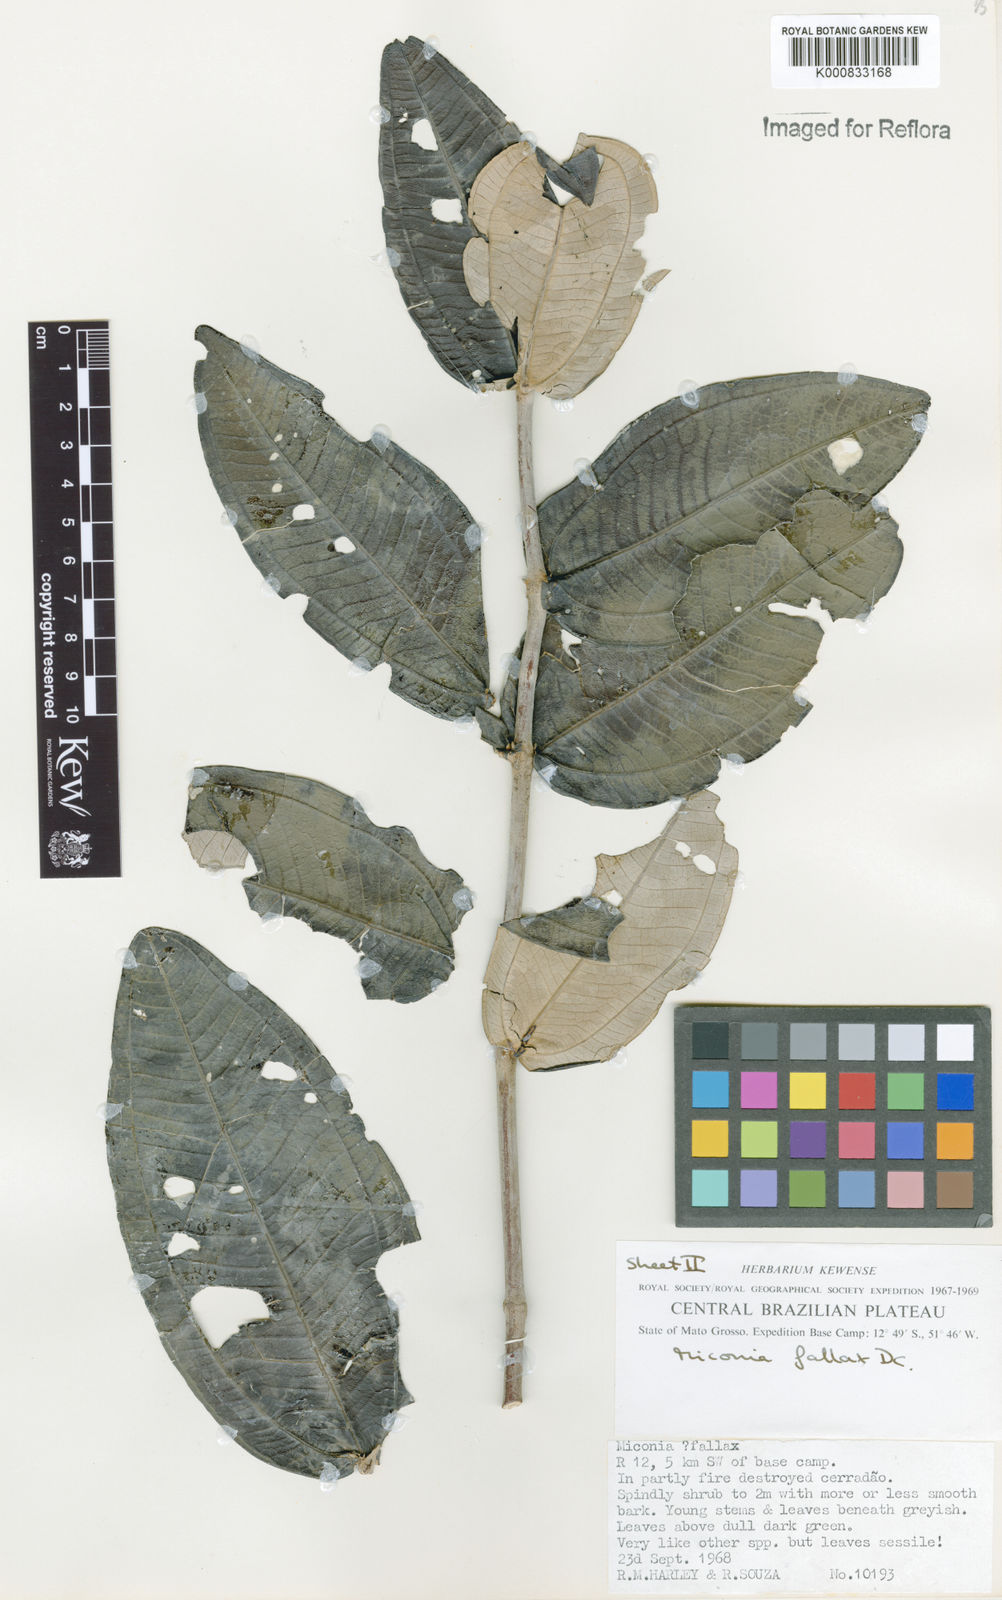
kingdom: Plantae
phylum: Tracheophyta
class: Magnoliopsida
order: Myrtales
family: Melastomataceae
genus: Miconia
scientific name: Miconia fallax
